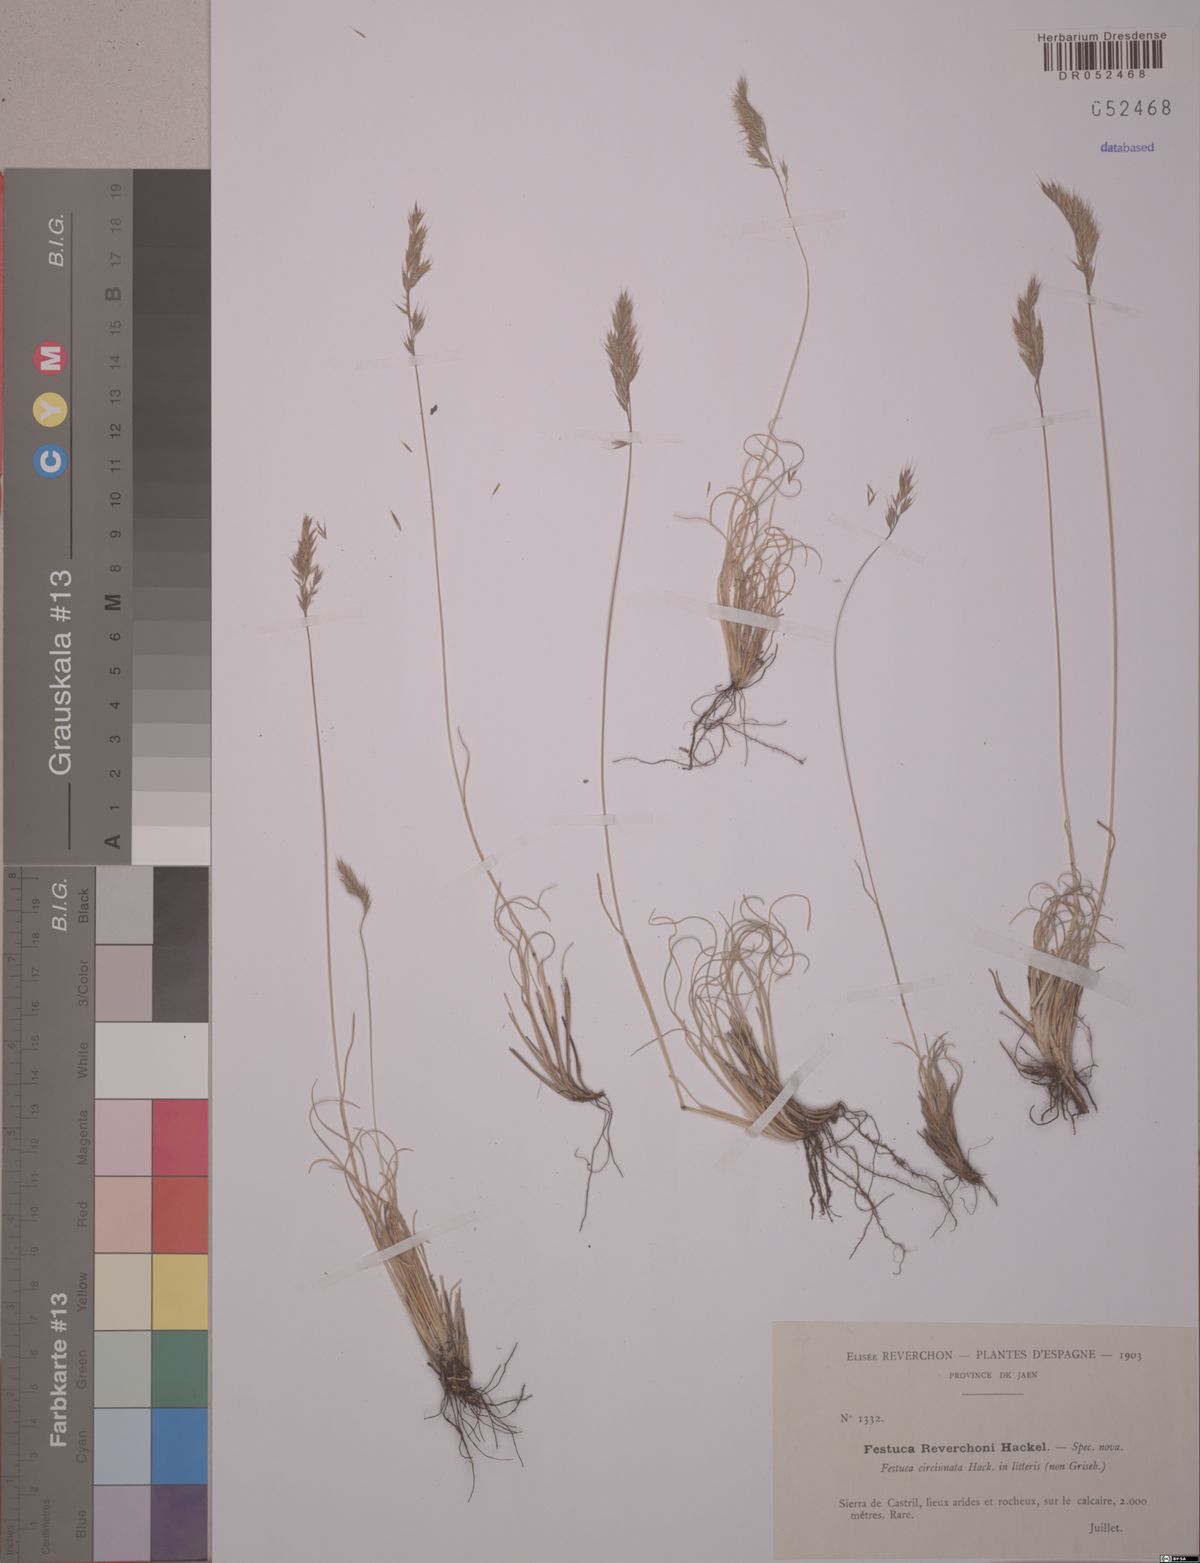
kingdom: Plantae
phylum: Tracheophyta
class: Liliopsida
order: Poales
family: Poaceae
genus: Festuca
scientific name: Festuca reverchonii
